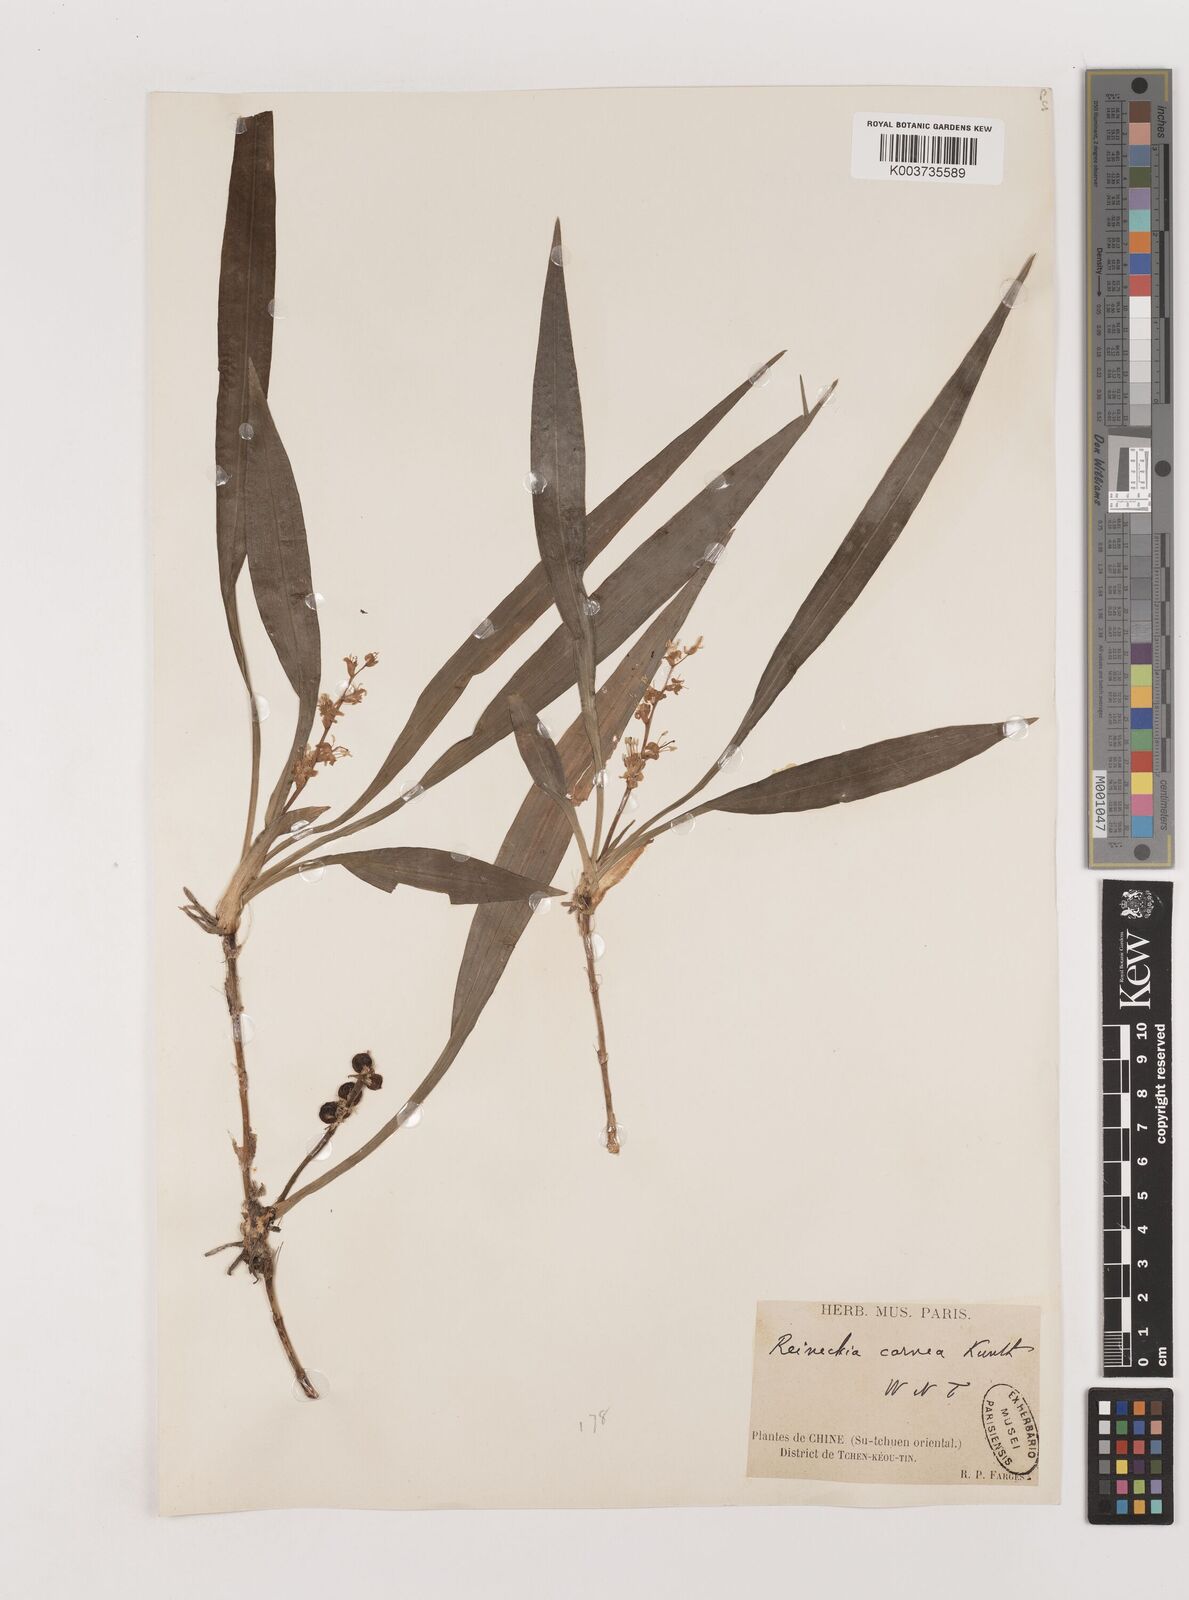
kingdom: Plantae
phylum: Tracheophyta
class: Liliopsida
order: Asparagales
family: Asparagaceae
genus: Reineckea
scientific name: Reineckea carnea
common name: Reineckea
